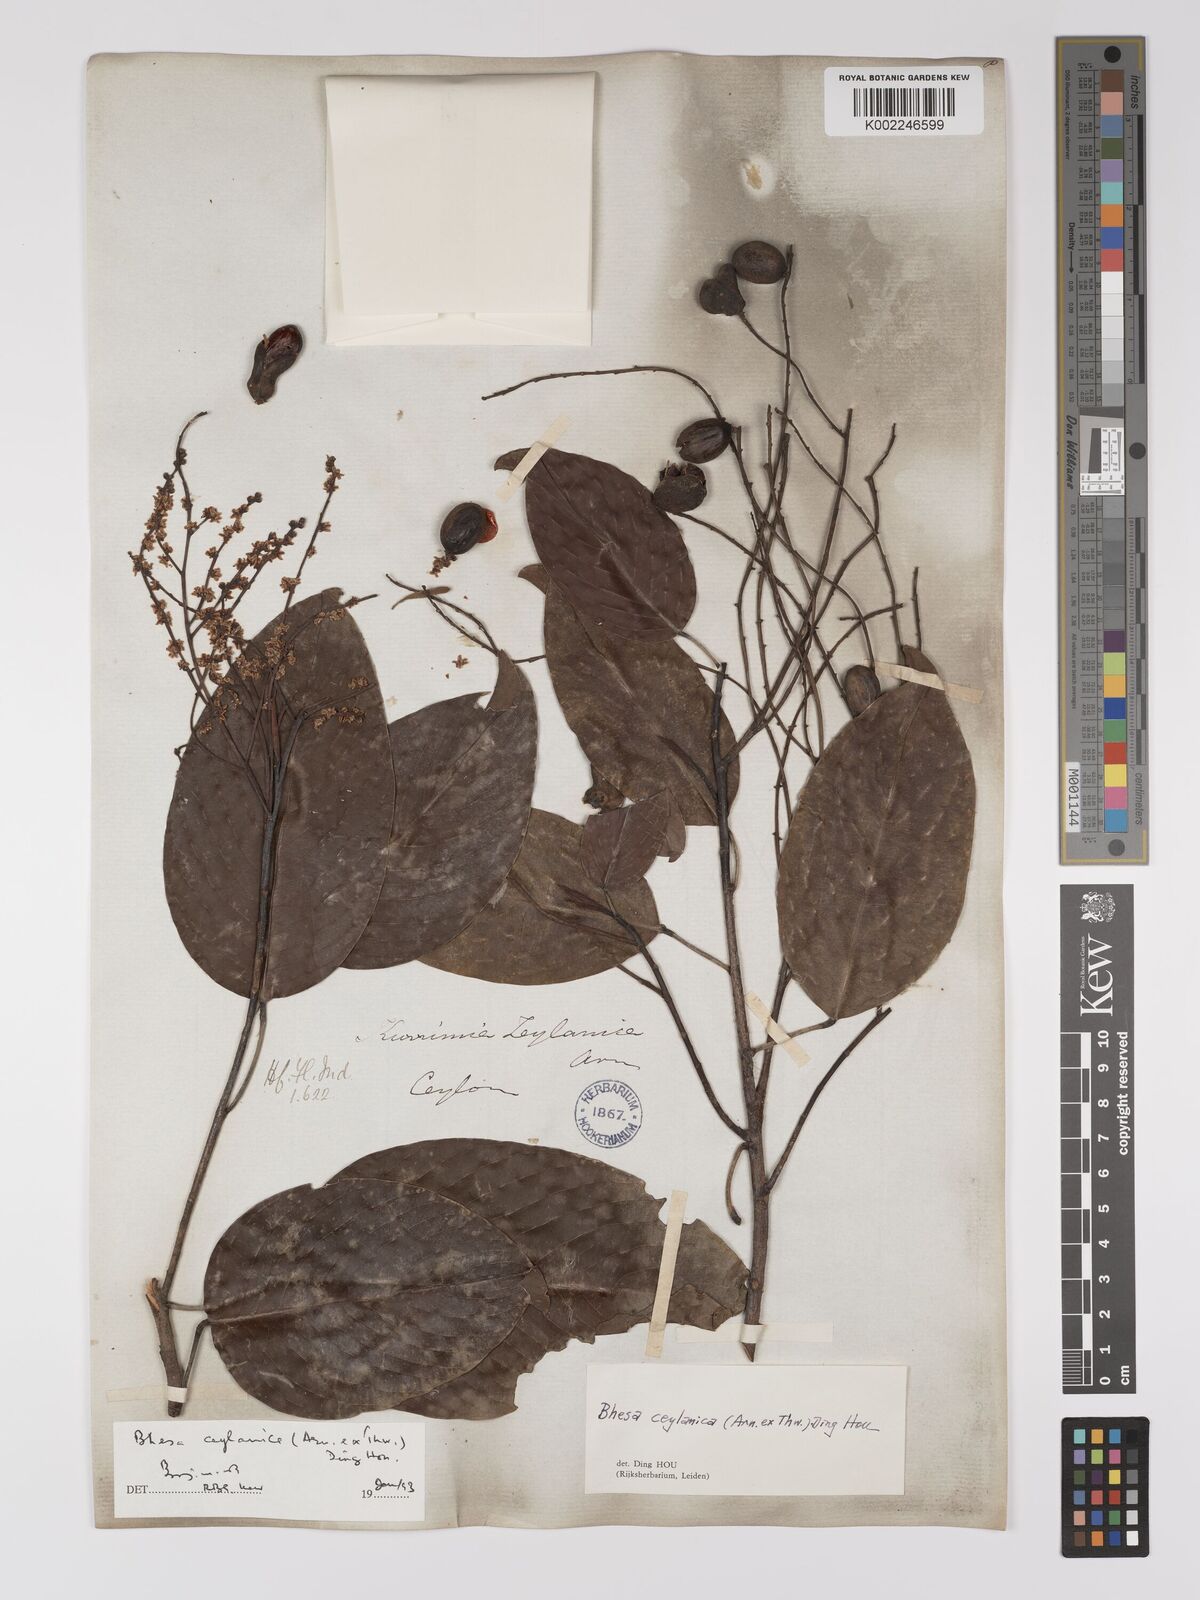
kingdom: Plantae
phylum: Tracheophyta
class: Magnoliopsida
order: Malpighiales
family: Centroplacaceae
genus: Bhesa
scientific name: Bhesa ceylanica
